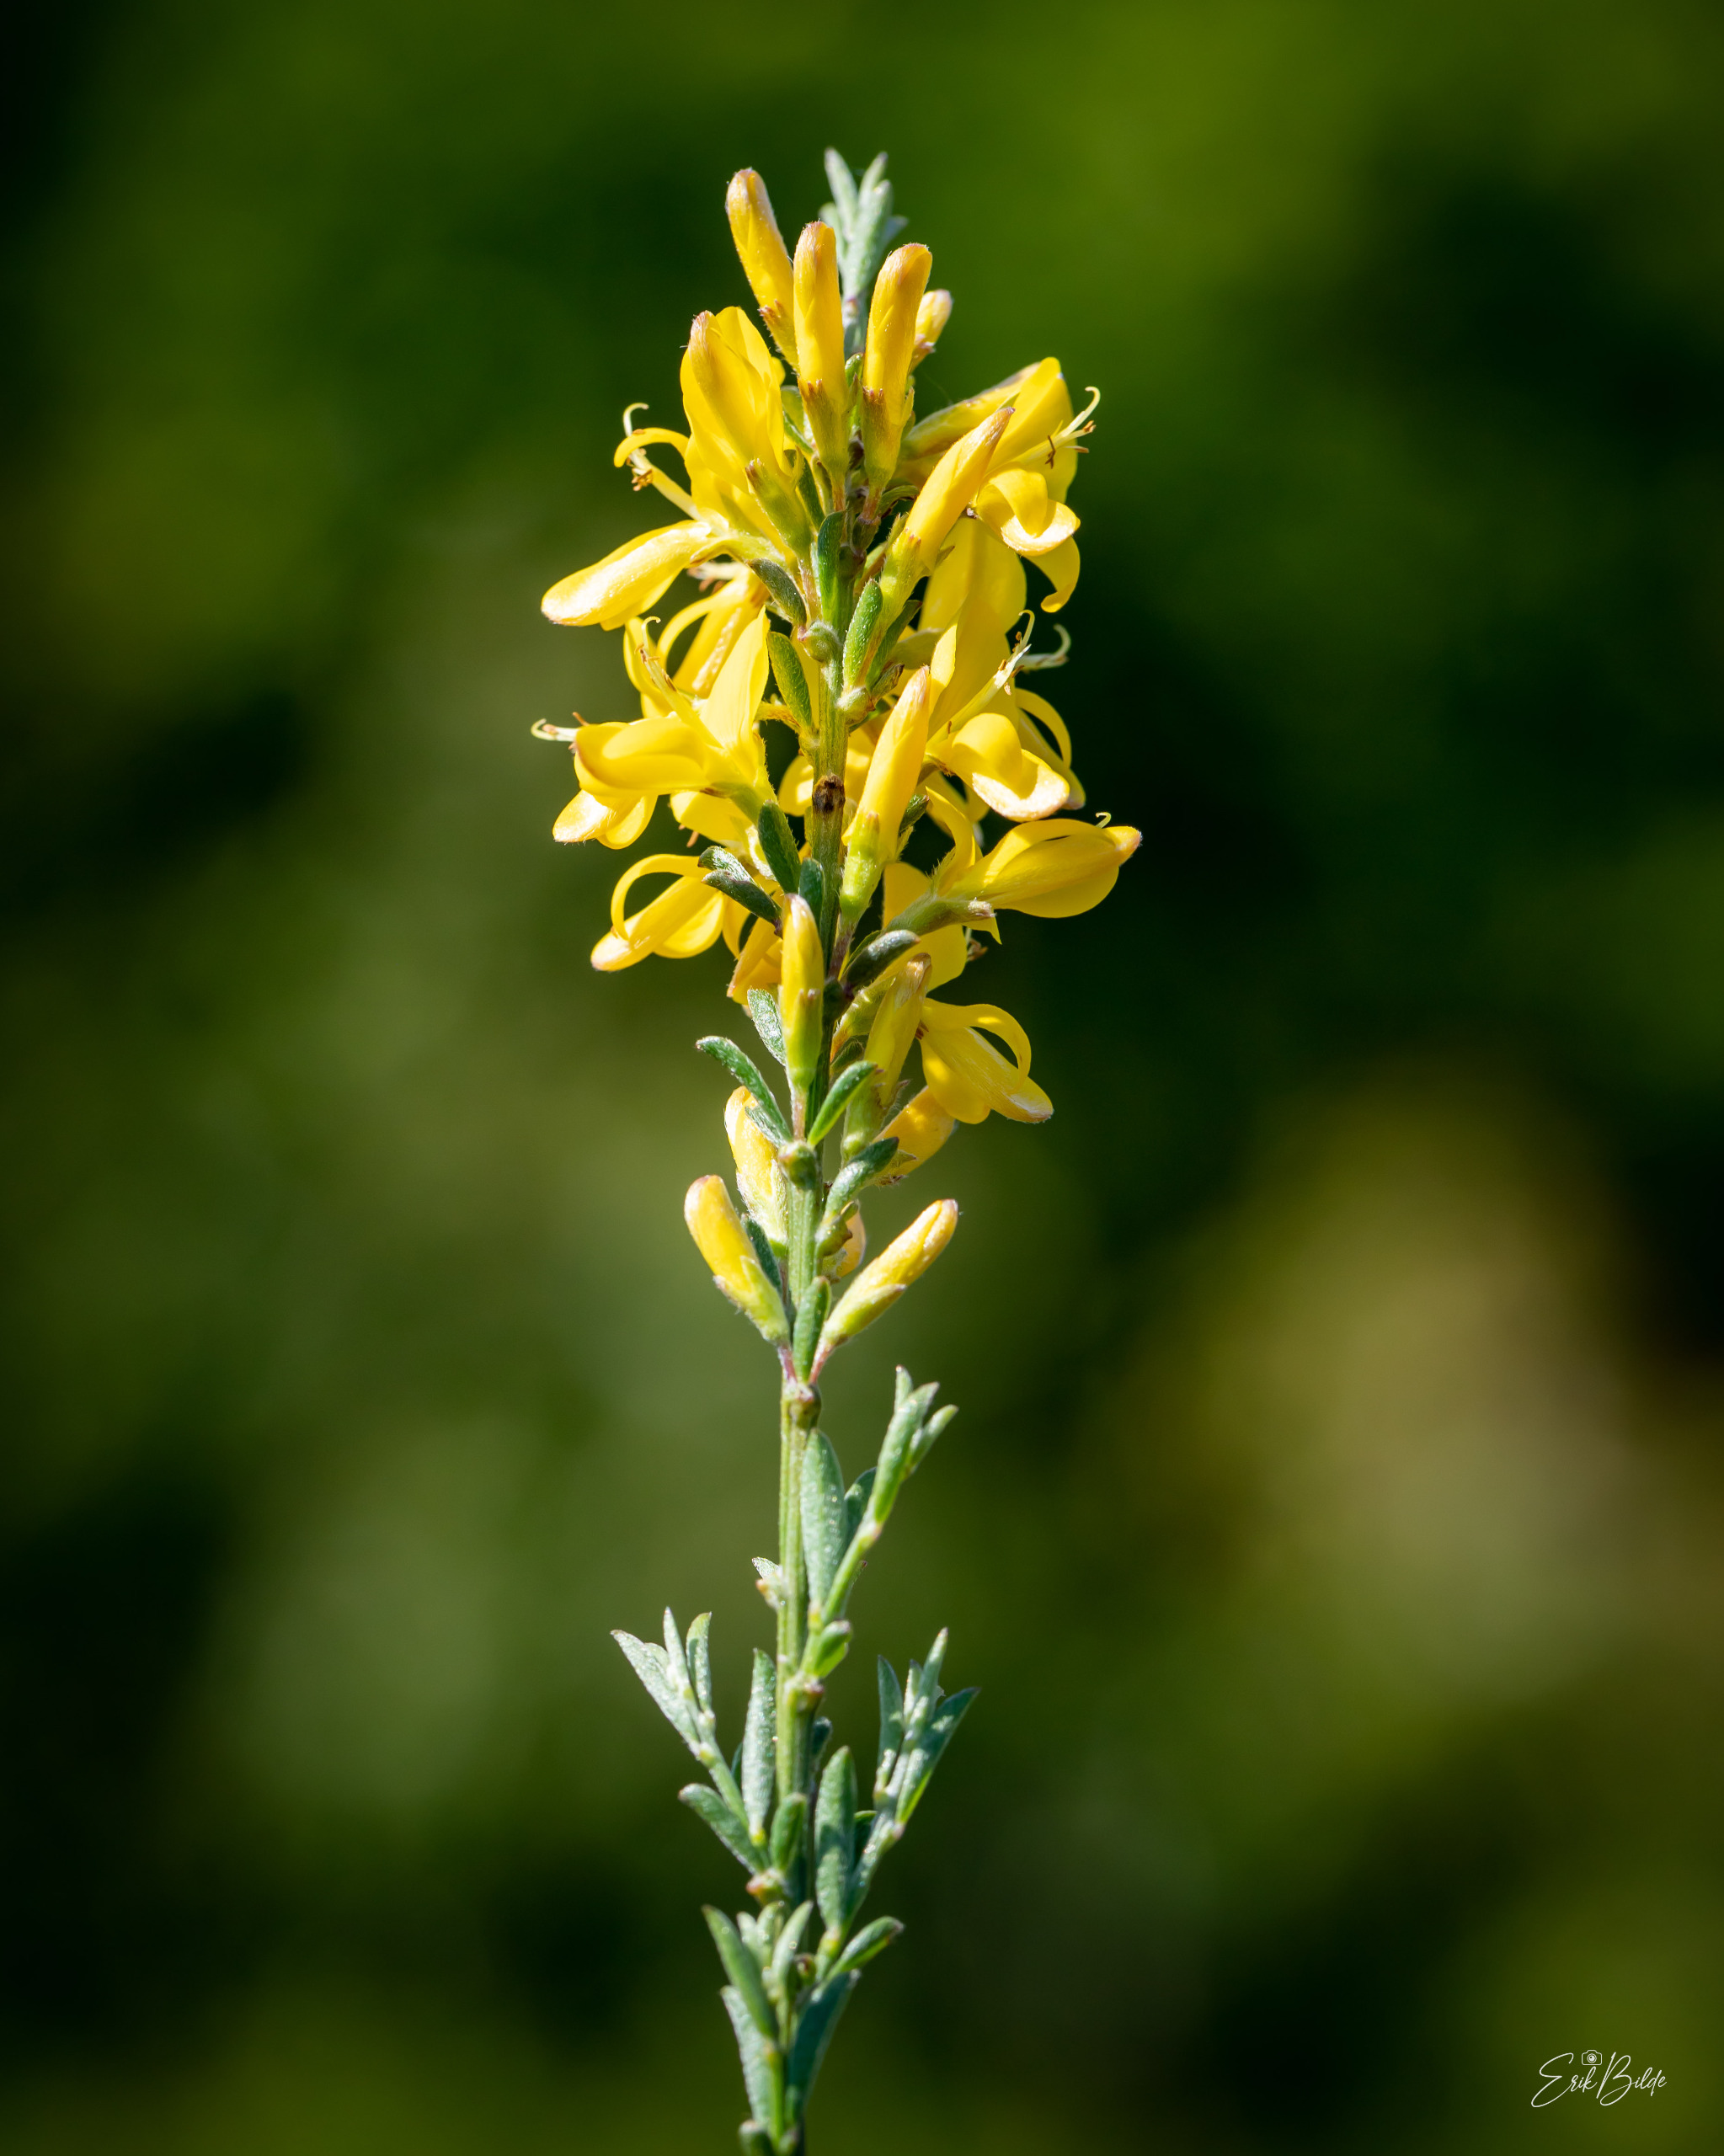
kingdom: Plantae
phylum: Tracheophyta
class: Magnoliopsida
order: Fabales
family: Fabaceae
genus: Cytisus
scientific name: Cytisus scoparius
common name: Almindelig gyvel
